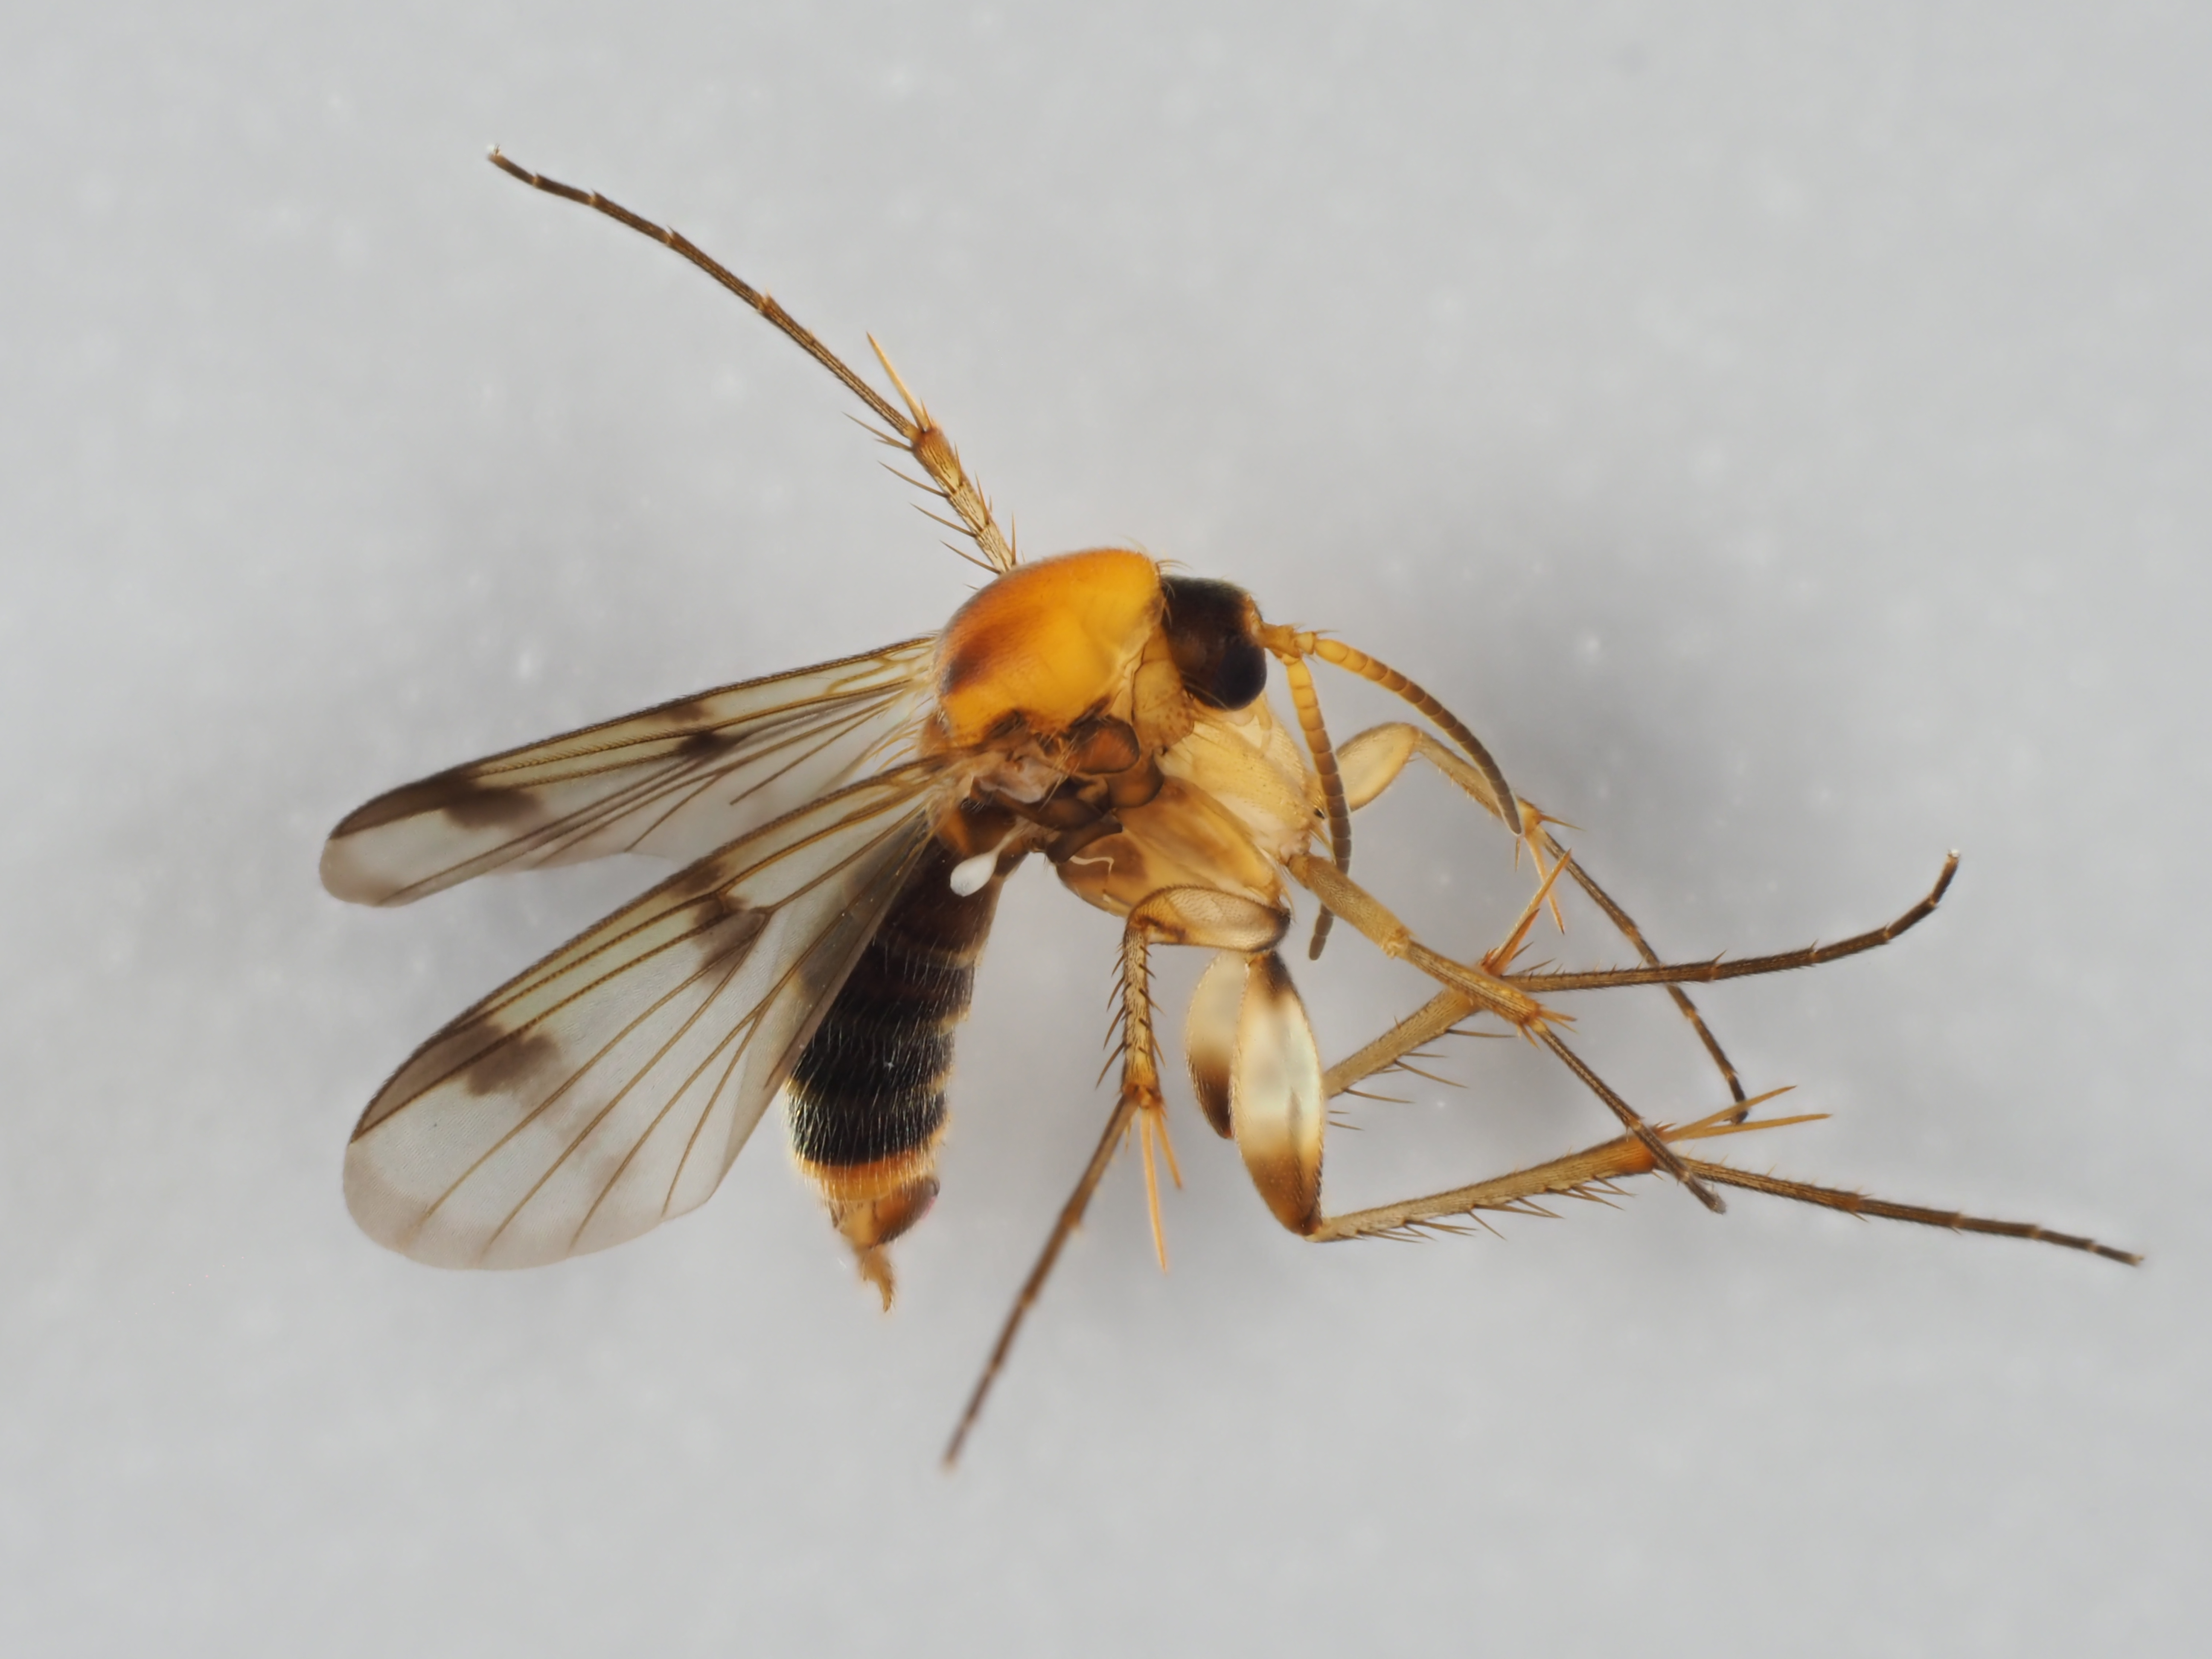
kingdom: Animalia
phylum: Arthropoda
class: Insecta
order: Diptera
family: Mycetophilidae
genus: Dynatosoma
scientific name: Dynatosoma silesiacum
